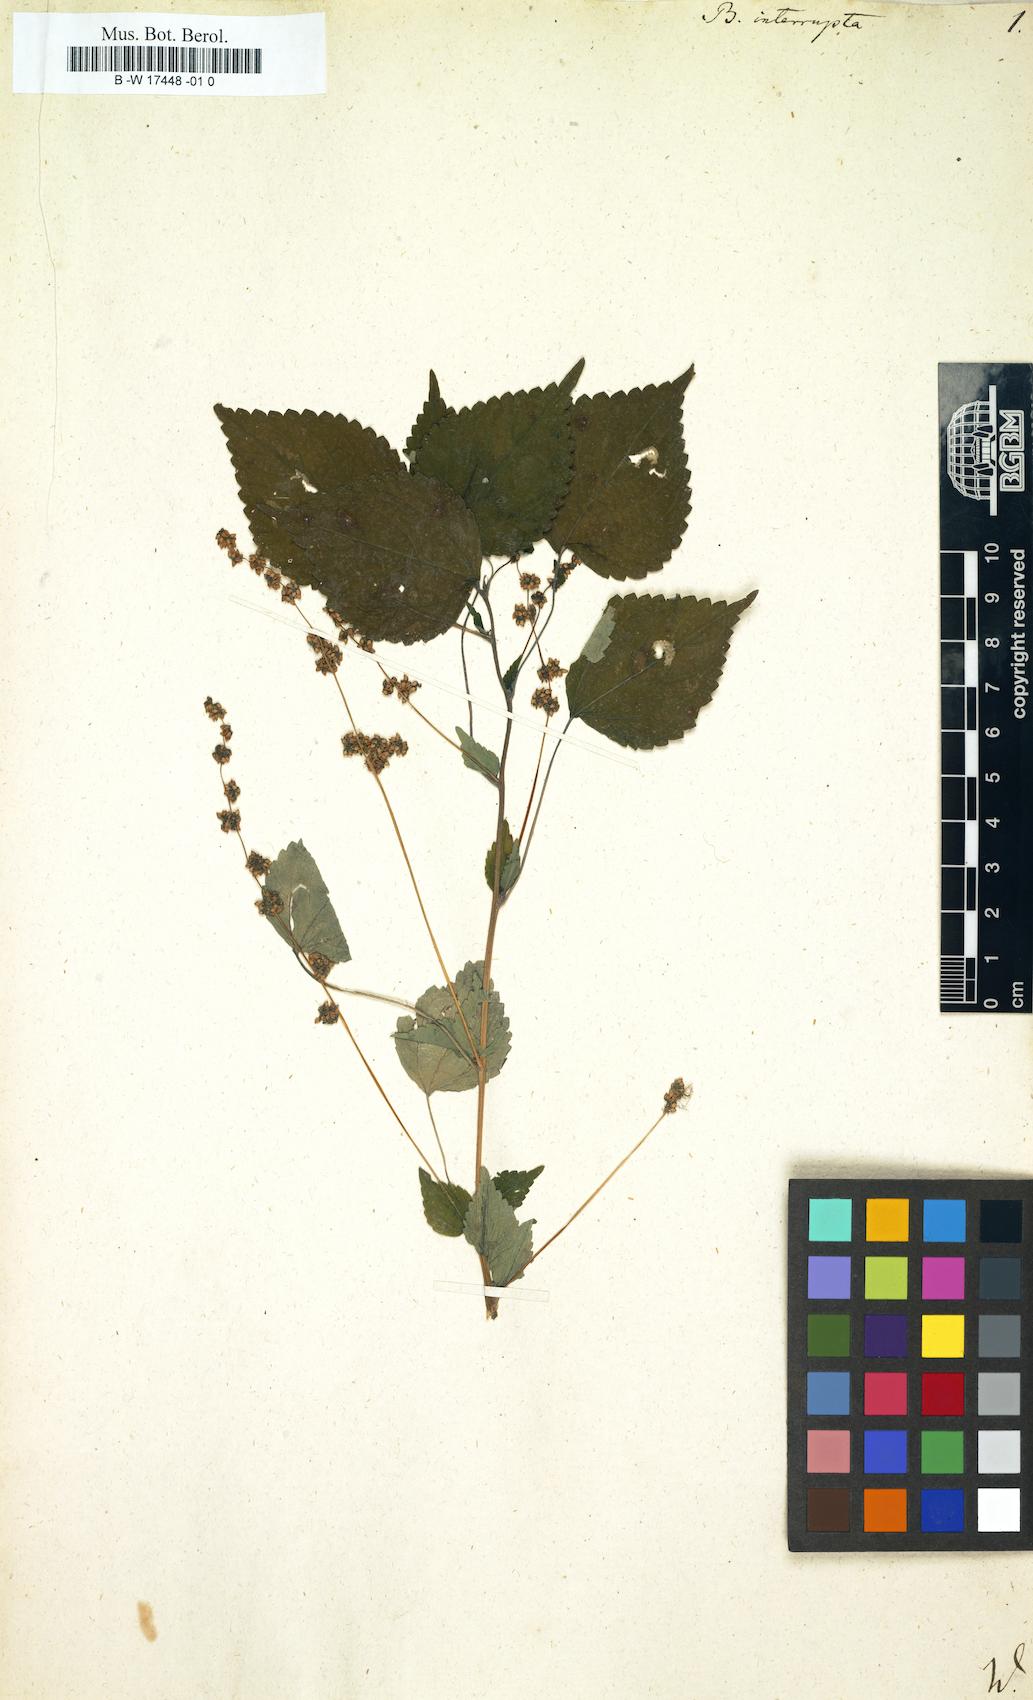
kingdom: Plantae
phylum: Tracheophyta
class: Magnoliopsida
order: Rosales
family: Urticaceae
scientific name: Urticaceae
